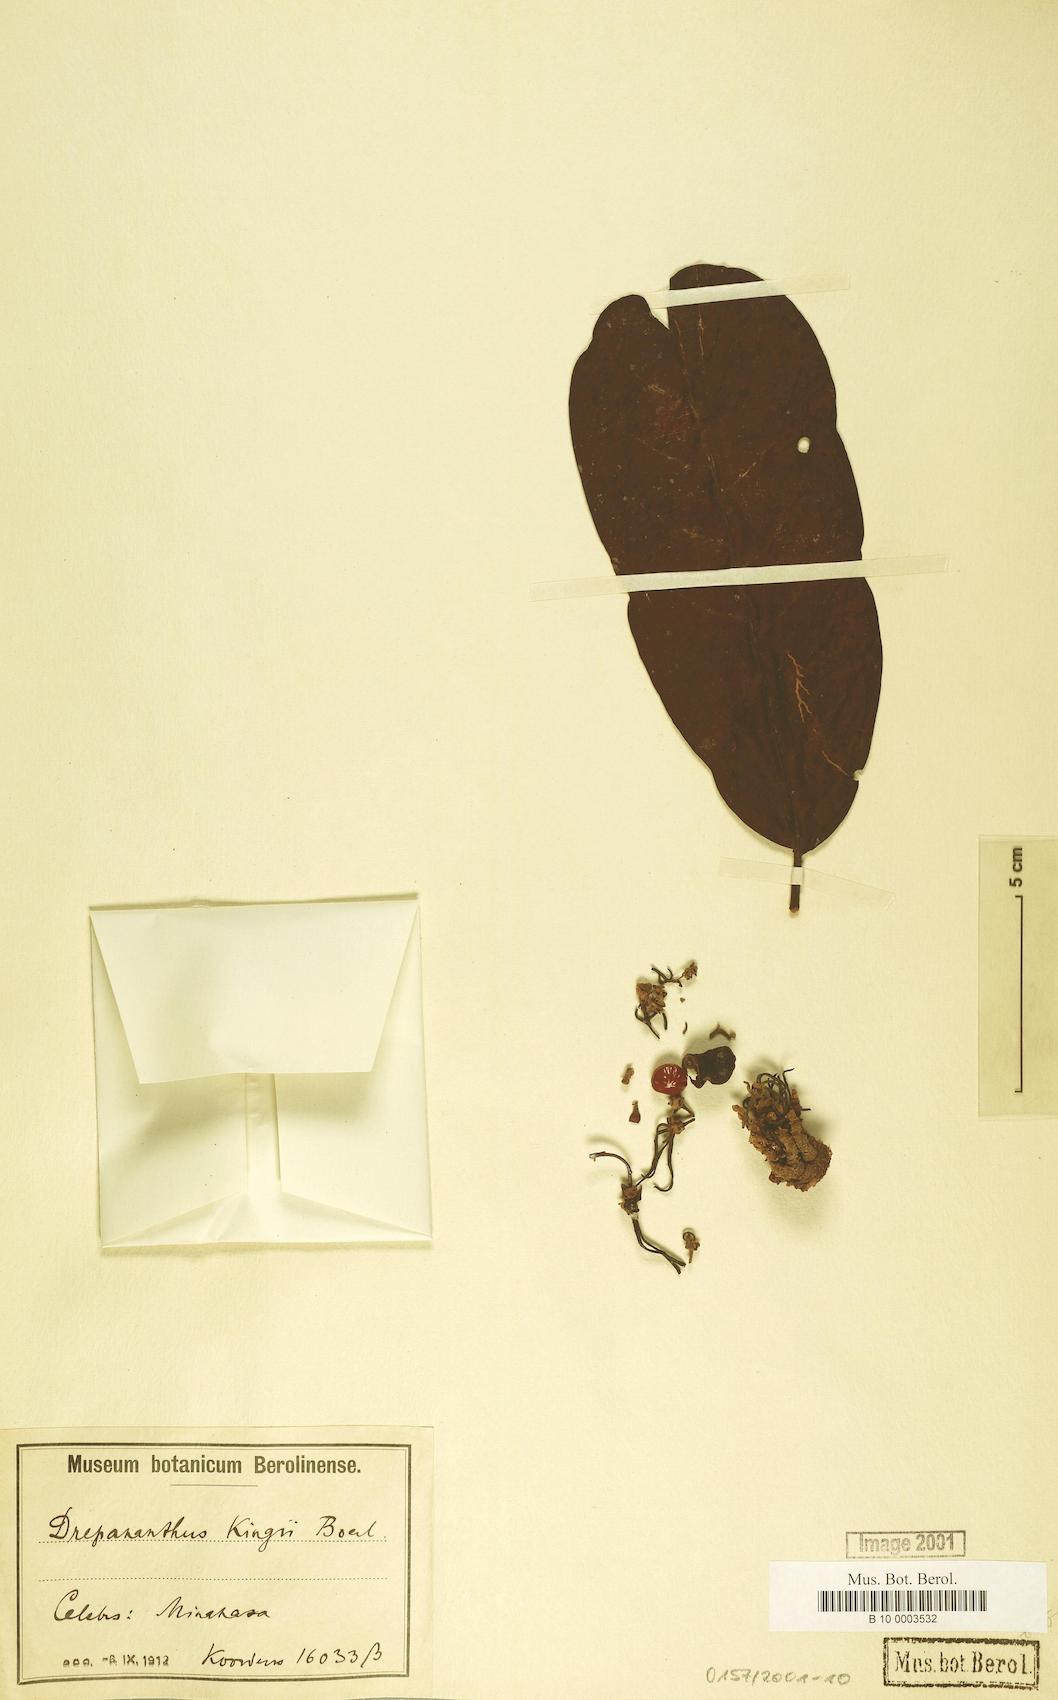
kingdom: Plantae
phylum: Tracheophyta
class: Magnoliopsida
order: Magnoliales
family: Annonaceae
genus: Drepananthus
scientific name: Drepananthus kingii
